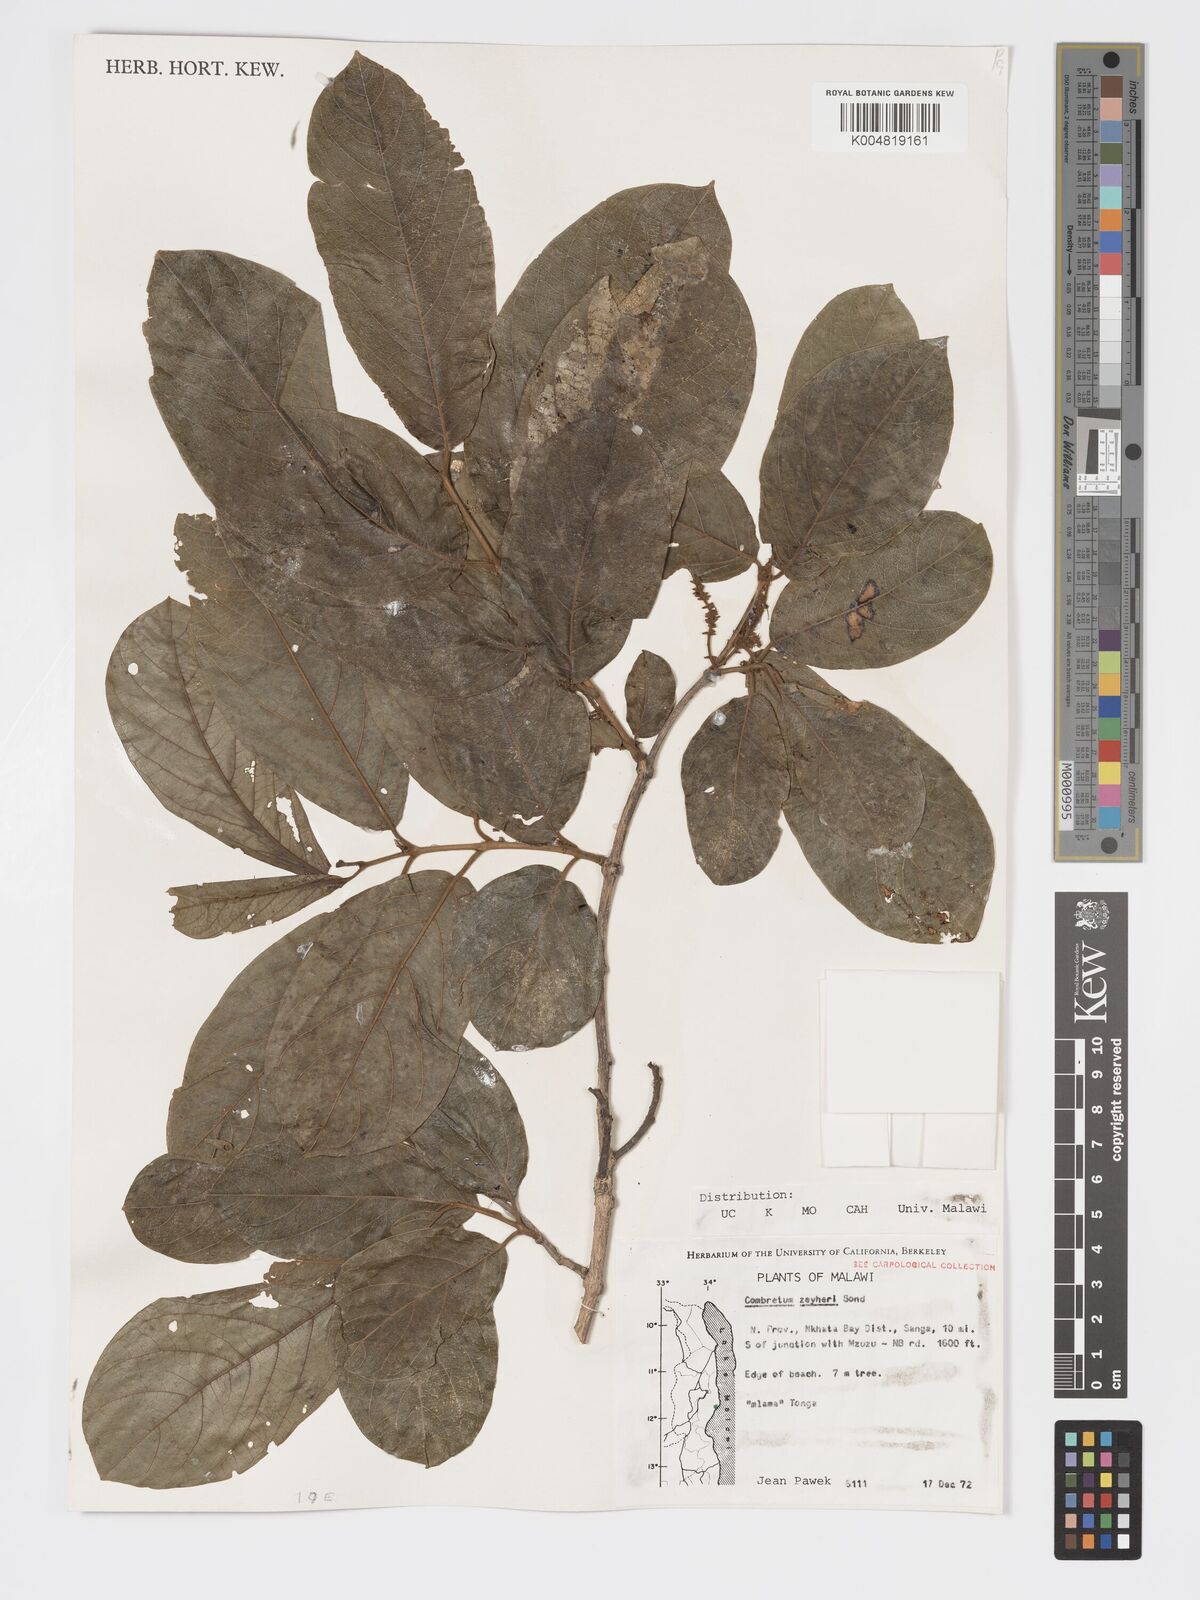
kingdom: Plantae
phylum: Tracheophyta
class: Magnoliopsida
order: Myrtales
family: Combretaceae
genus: Combretum
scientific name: Combretum zeyheri
